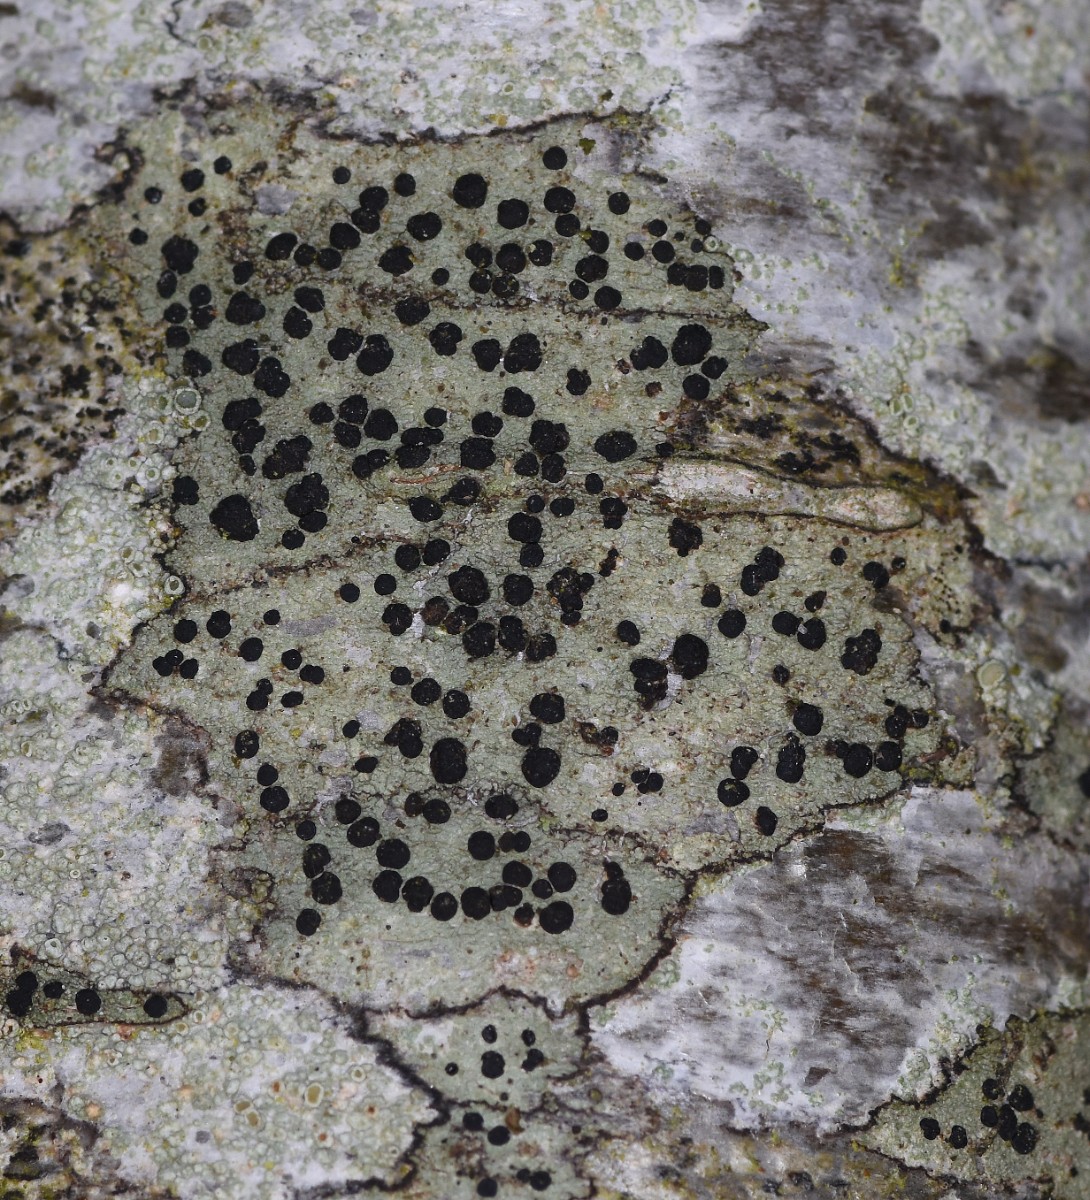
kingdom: Fungi
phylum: Ascomycota
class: Lecanoromycetes
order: Lecanorales
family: Lecanoraceae
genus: Lecidella
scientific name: Lecidella elaeochroma
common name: grågrøn skivelav
